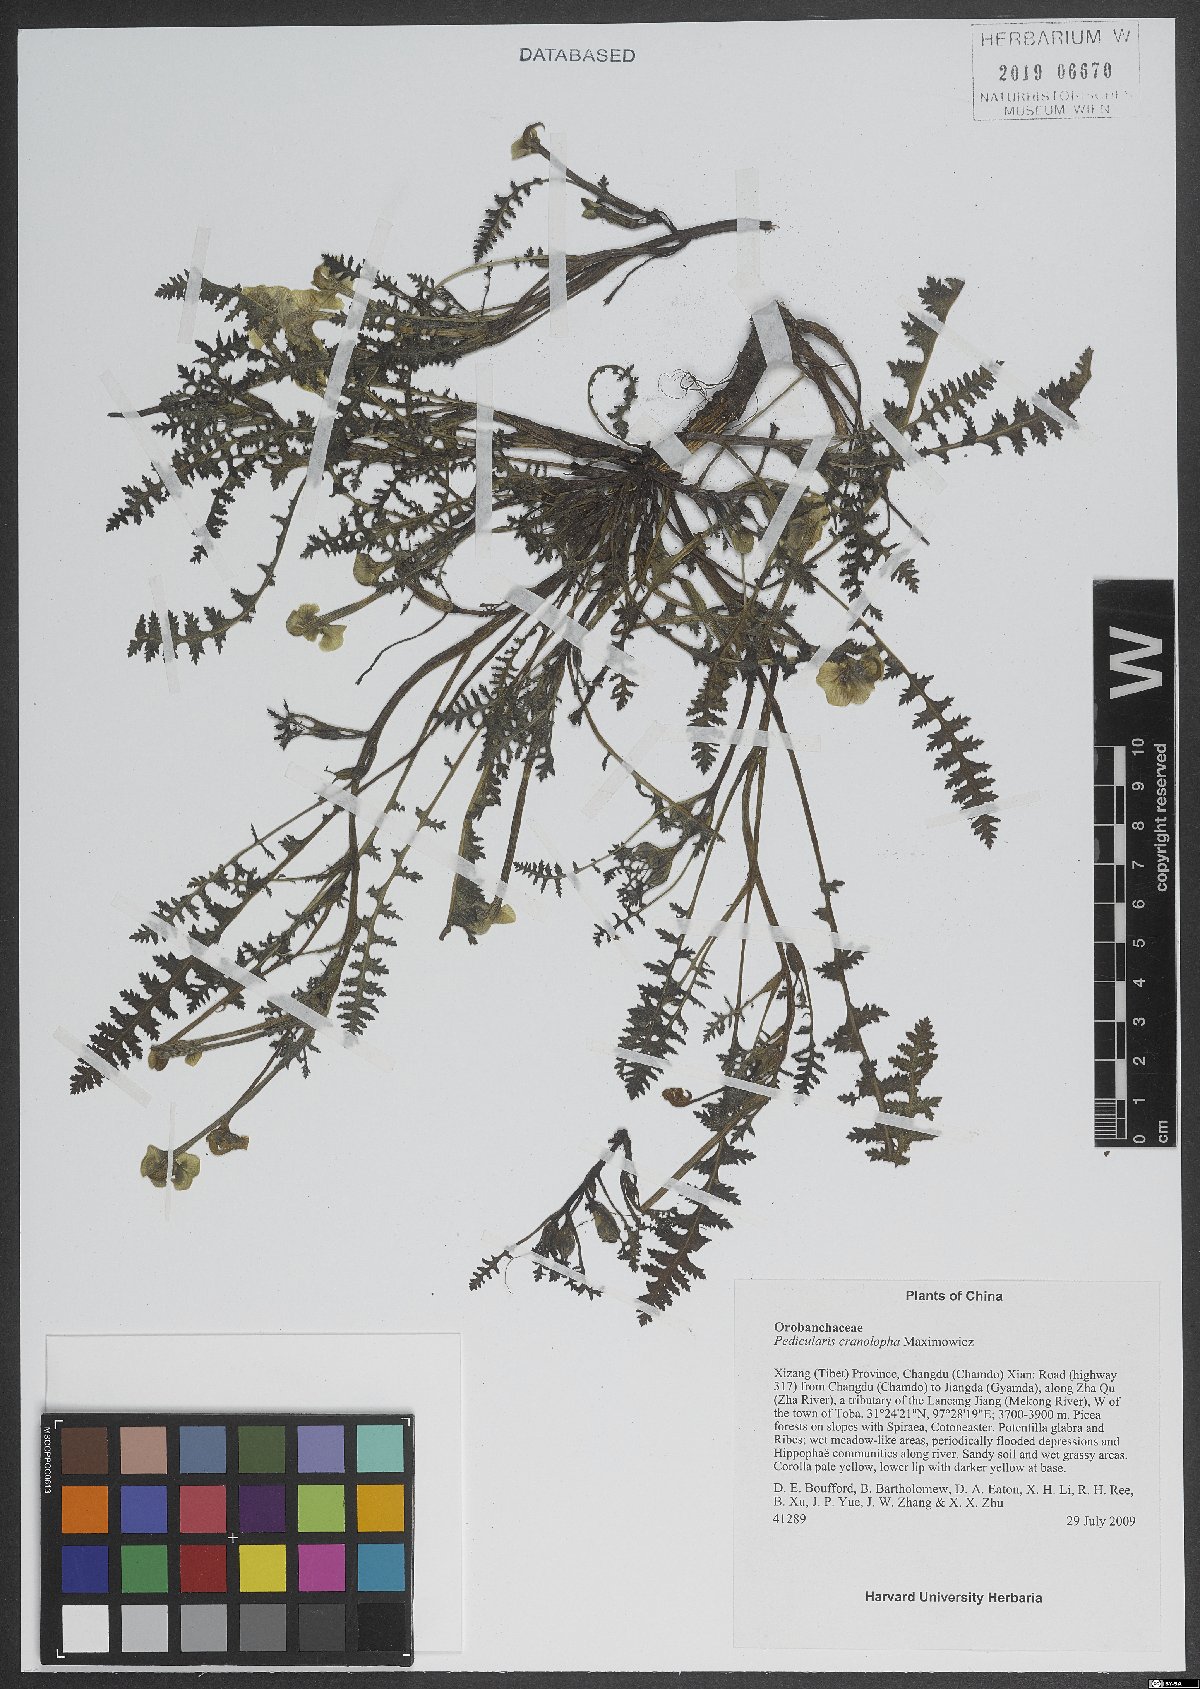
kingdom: Plantae
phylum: Tracheophyta
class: Magnoliopsida
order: Lamiales
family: Orobanchaceae
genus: Pedicularis
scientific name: Pedicularis cranolopha
